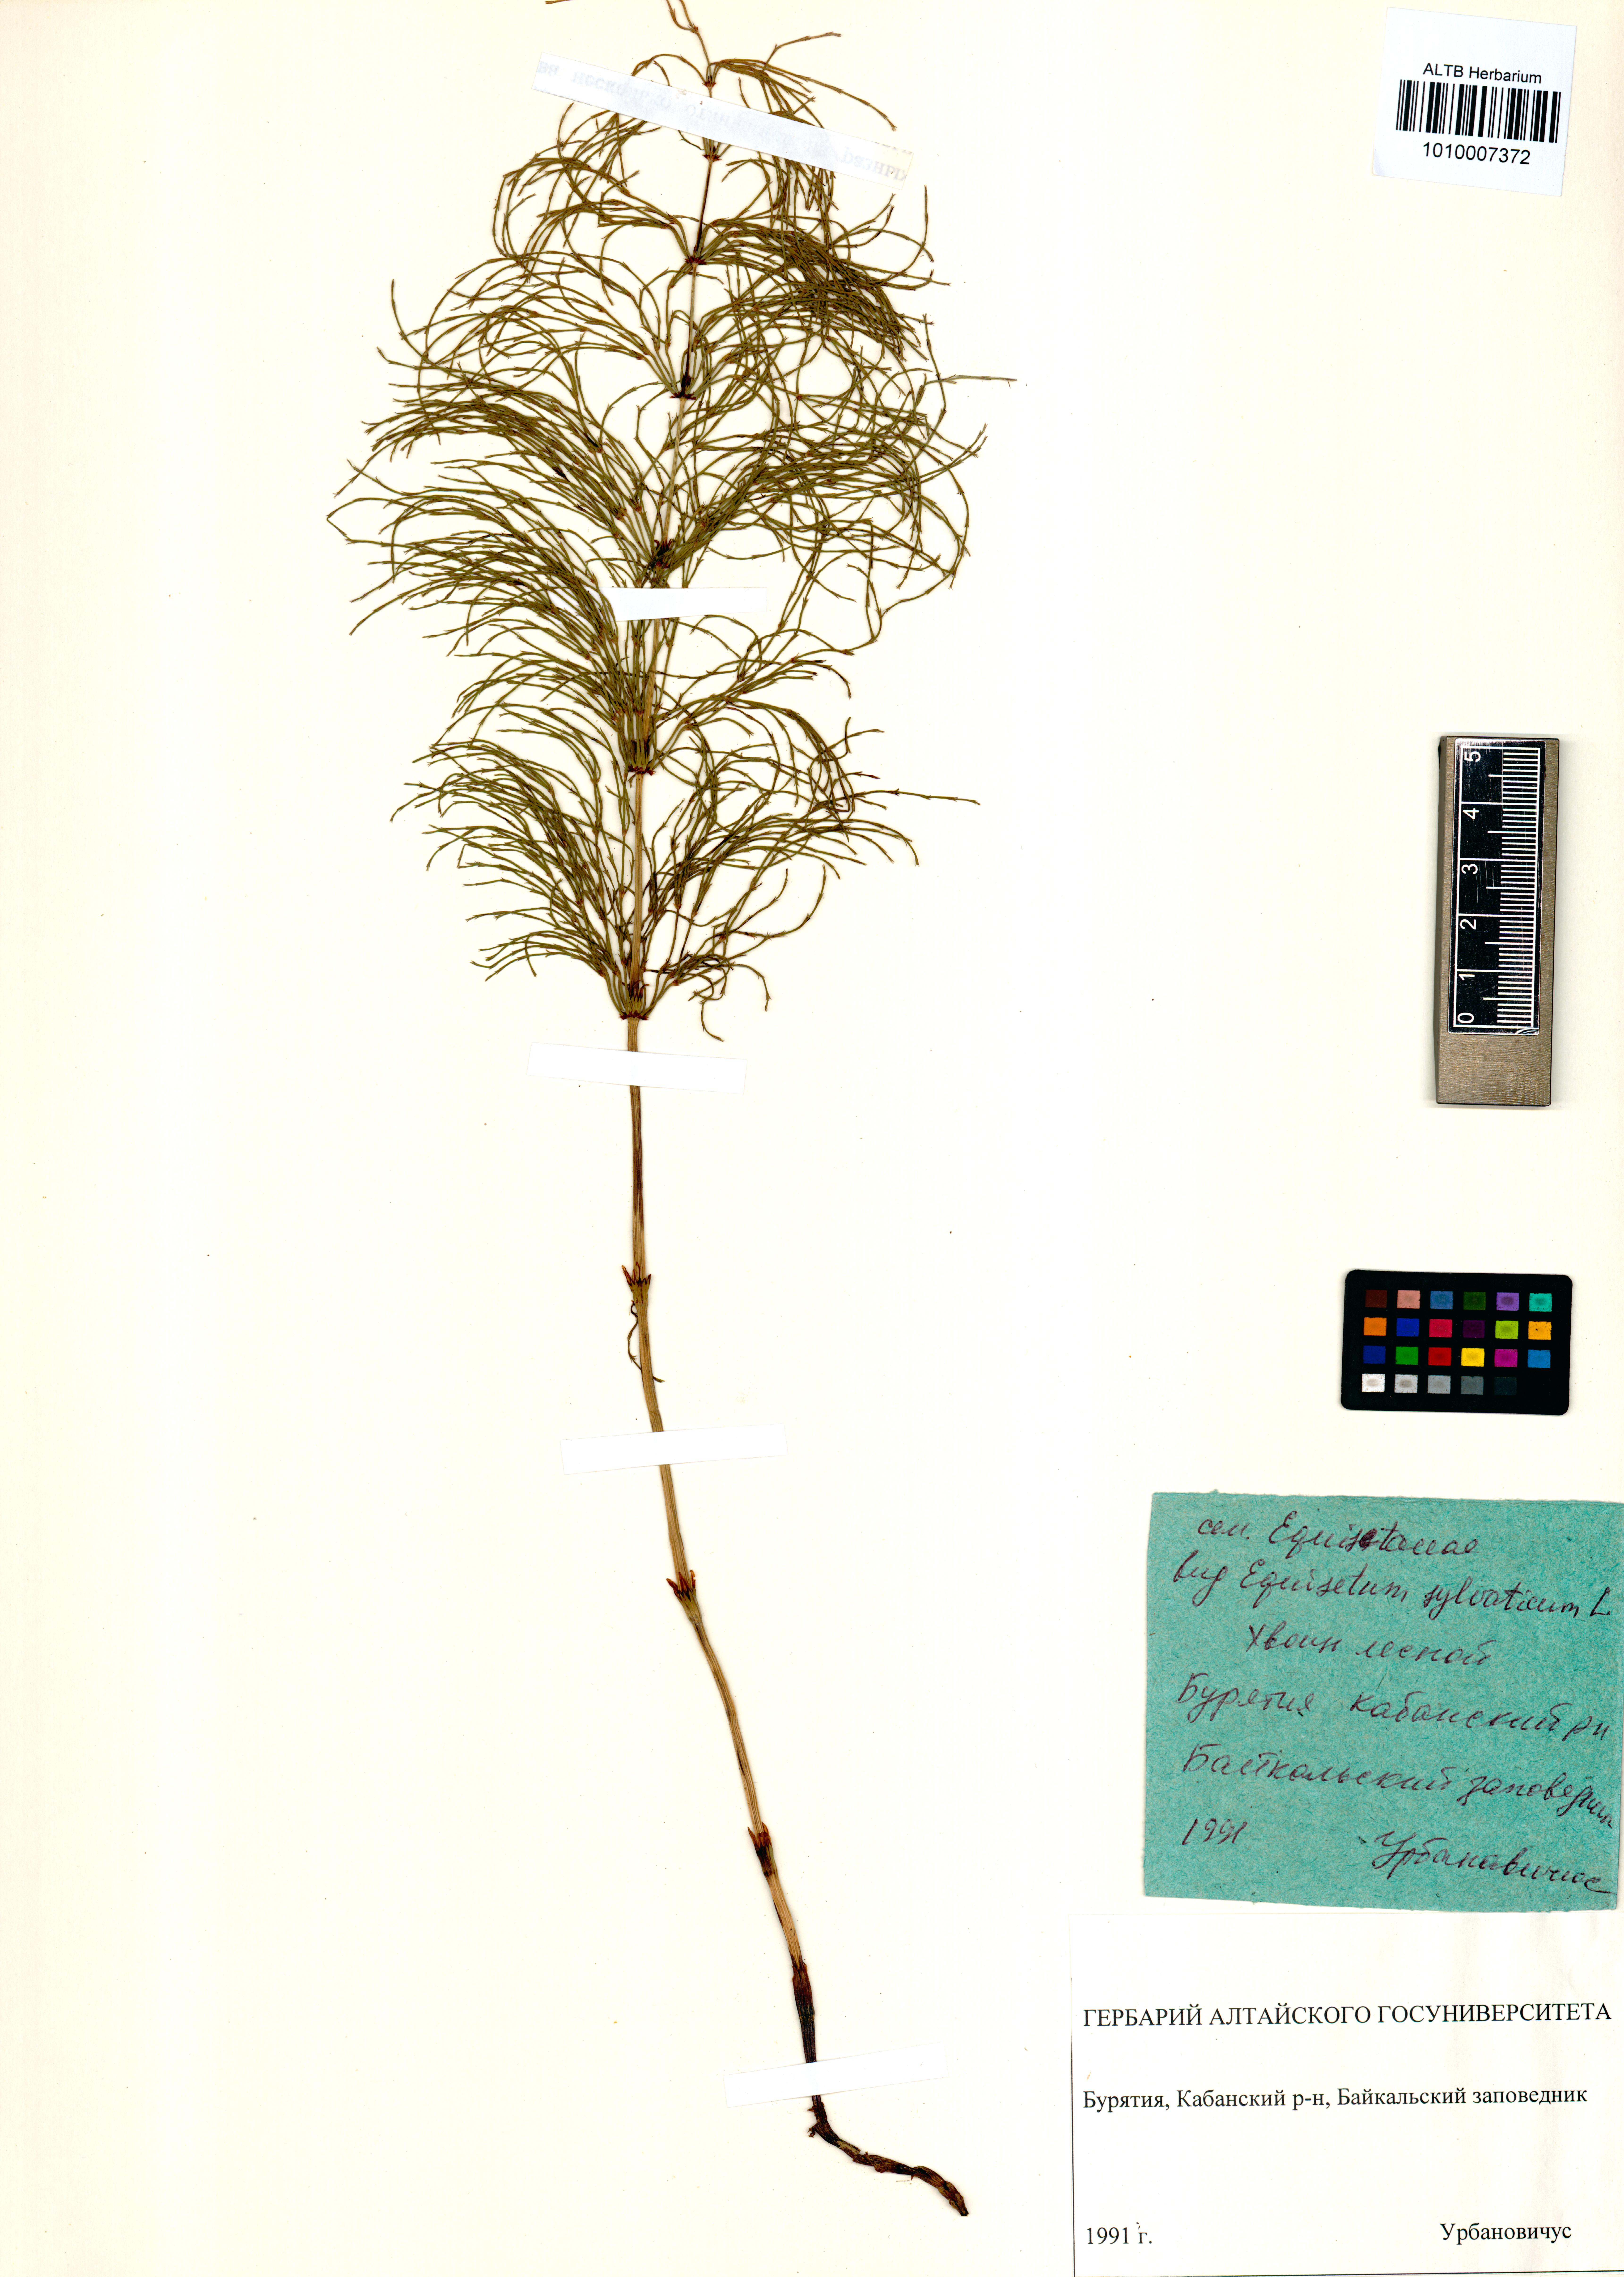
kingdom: Plantae
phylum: Tracheophyta
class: Polypodiopsida
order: Equisetales
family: Equisetaceae
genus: Equisetum
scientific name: Equisetum sylvaticum
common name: Wood horsetail
